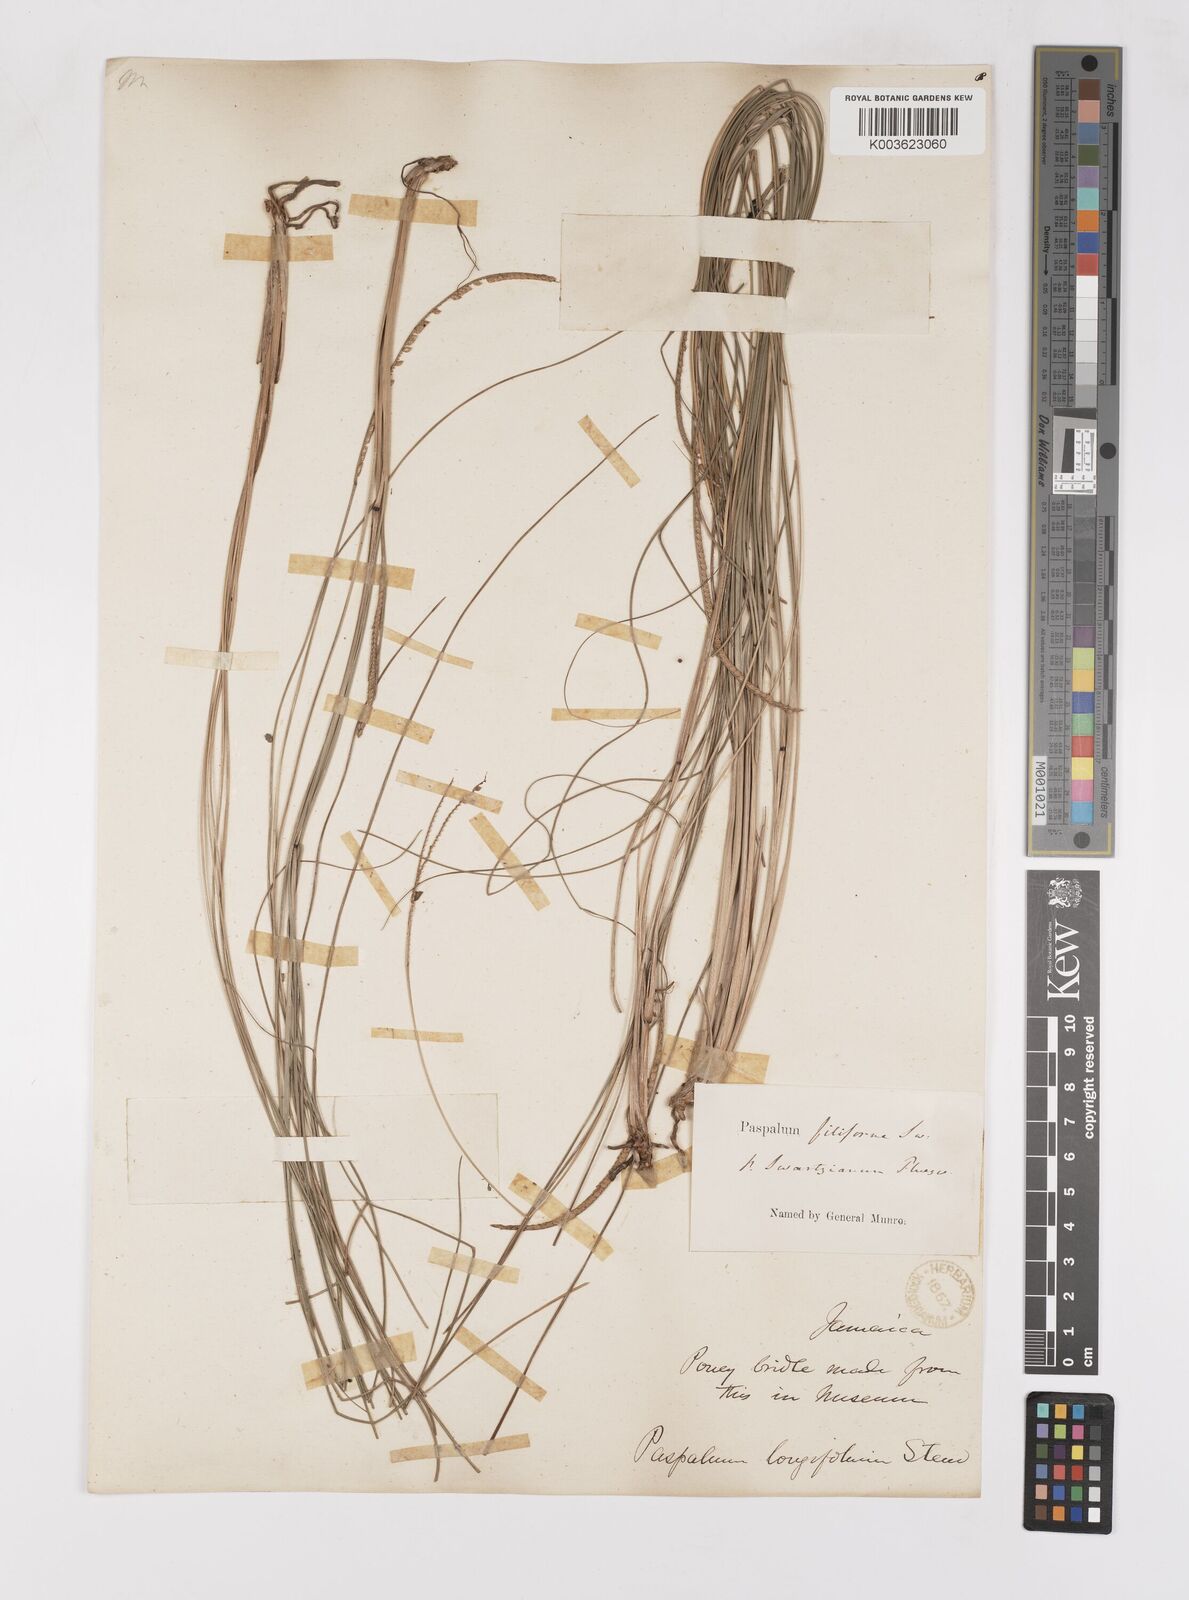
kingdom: Plantae
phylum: Tracheophyta
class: Liliopsida
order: Poales
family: Poaceae
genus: Paspalum
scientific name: Paspalum lindenianum
